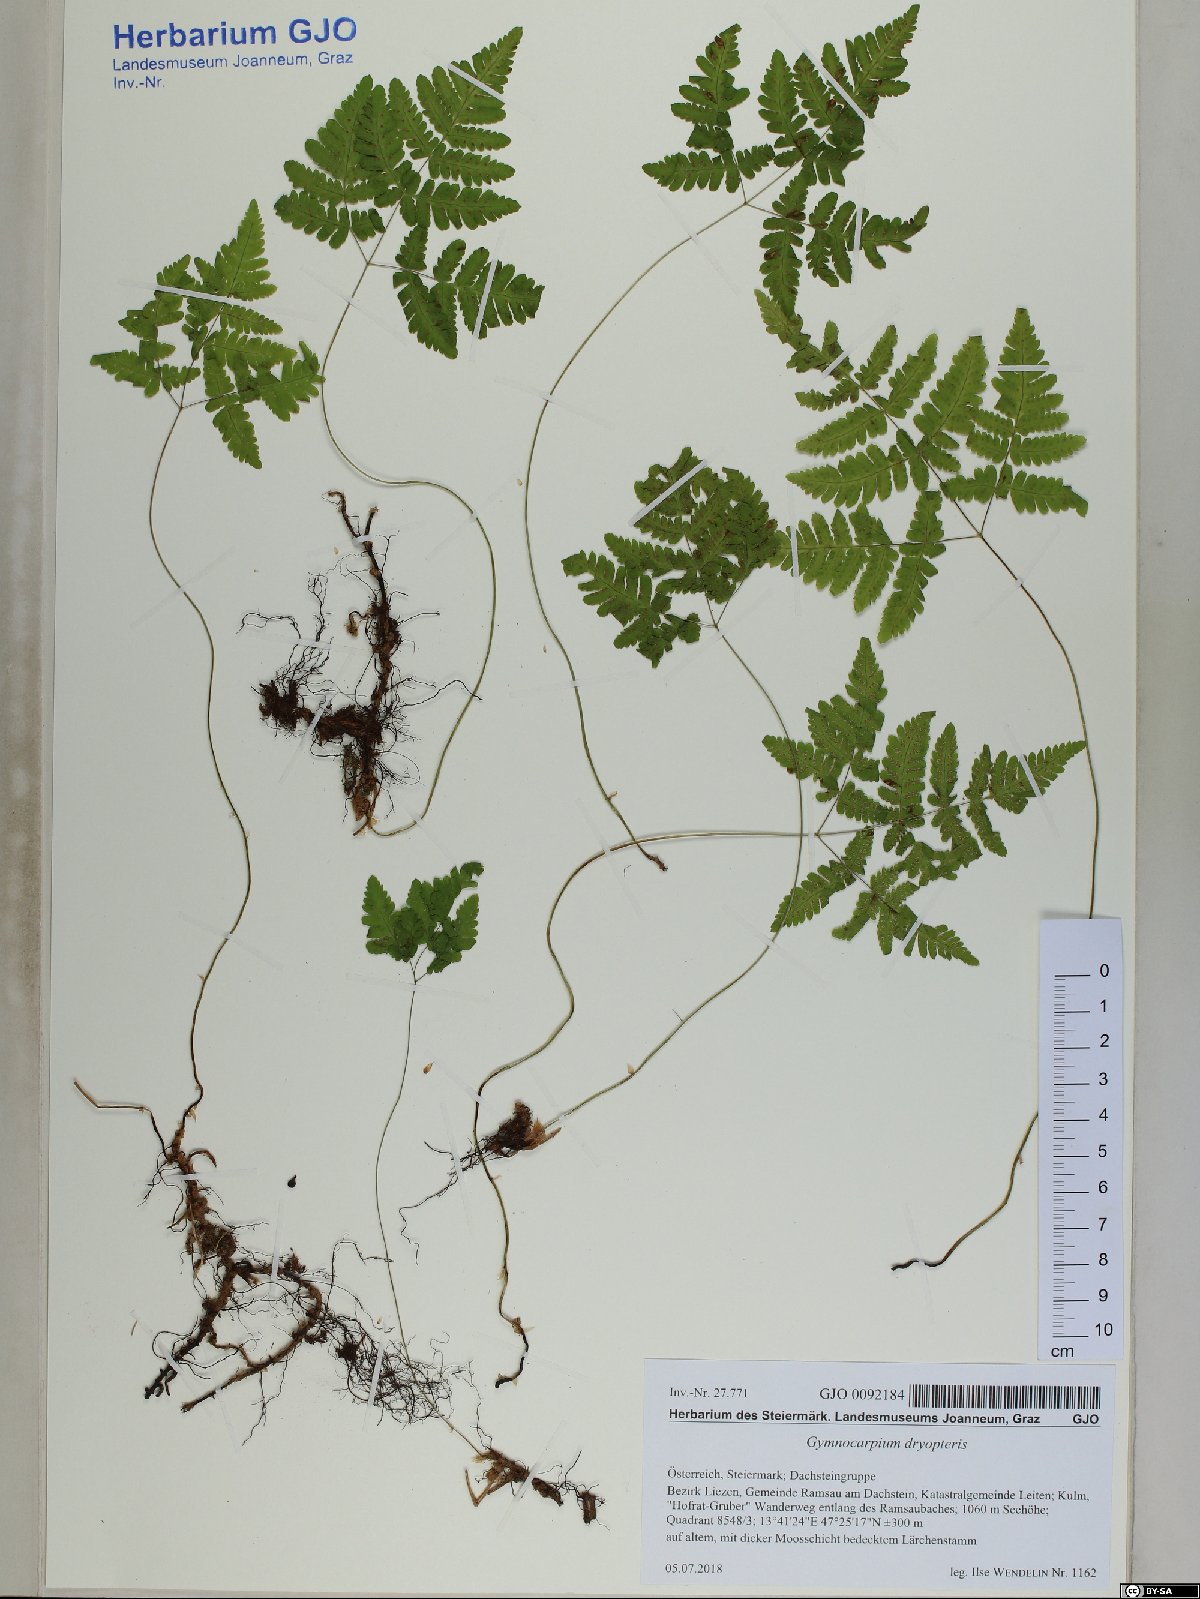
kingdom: Plantae
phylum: Tracheophyta
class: Polypodiopsida
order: Polypodiales
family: Cystopteridaceae
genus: Gymnocarpium
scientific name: Gymnocarpium dryopteris
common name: Oak fern
